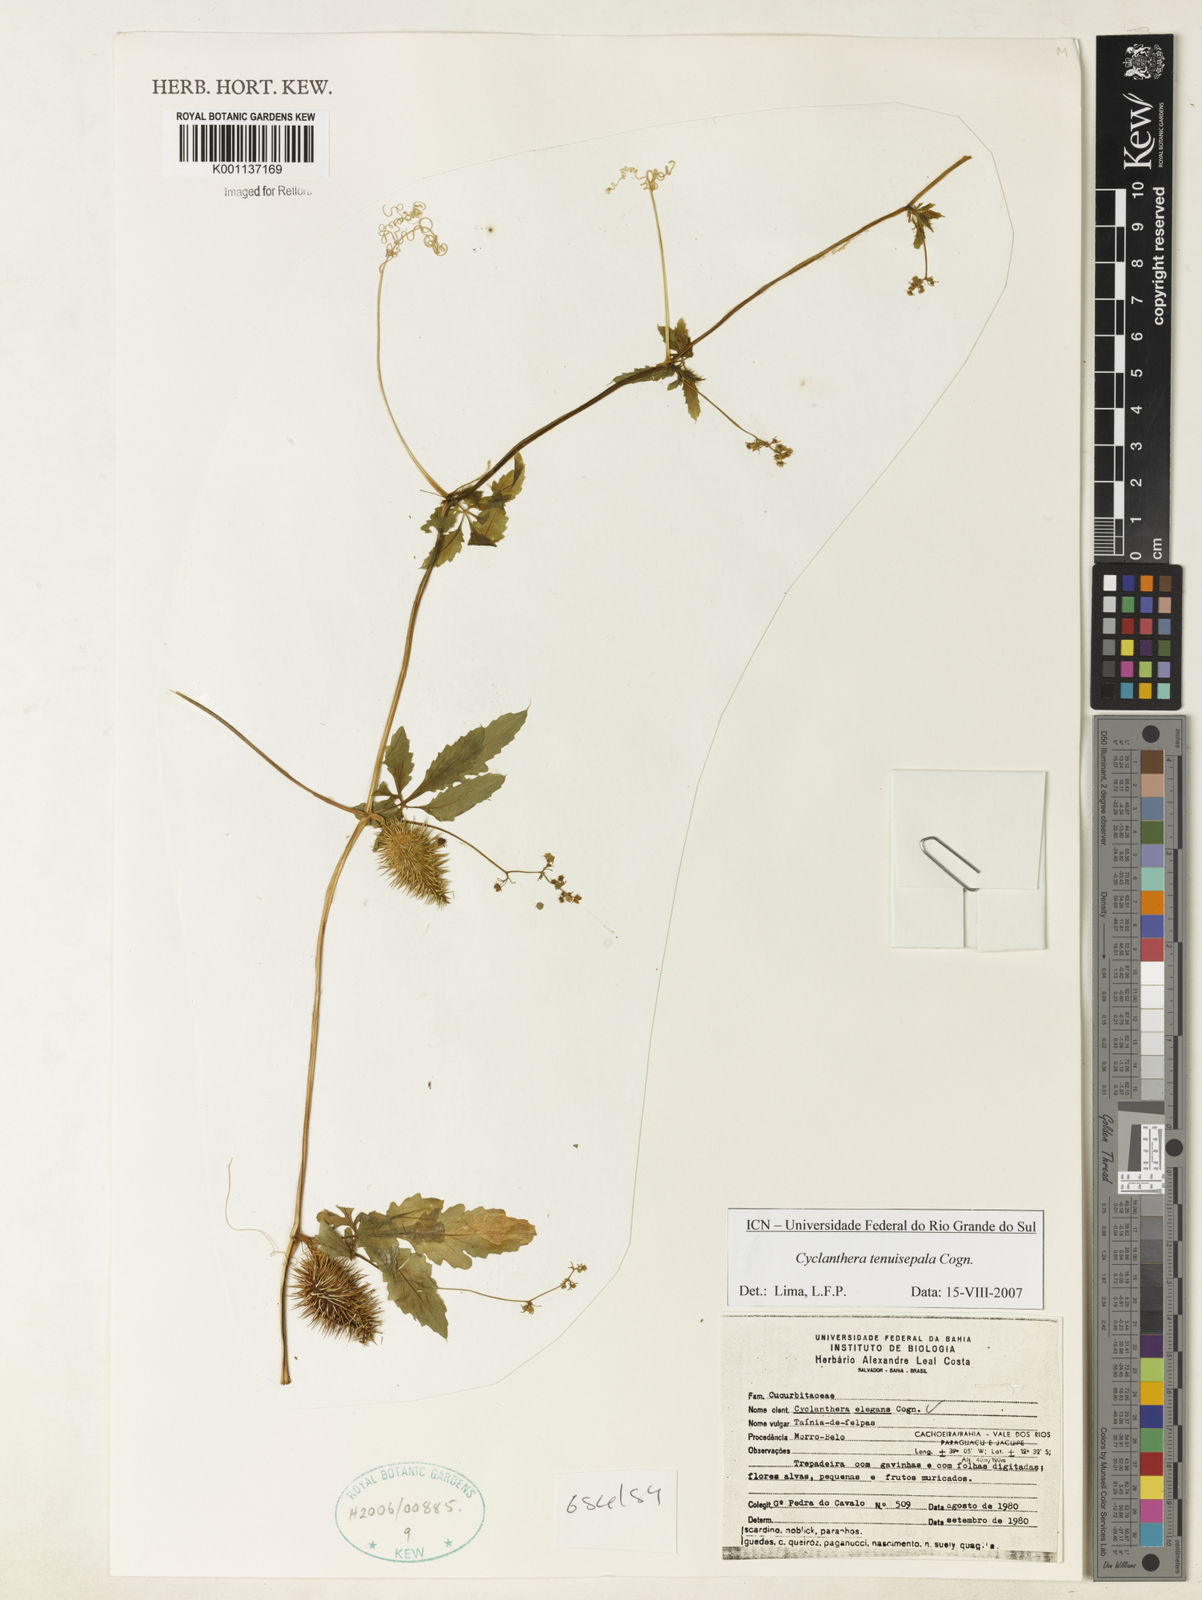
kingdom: Plantae
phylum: Tracheophyta
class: Magnoliopsida
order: Cucurbitales
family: Cucurbitaceae
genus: Cyclanthera
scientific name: Cyclanthera tenuisepala
